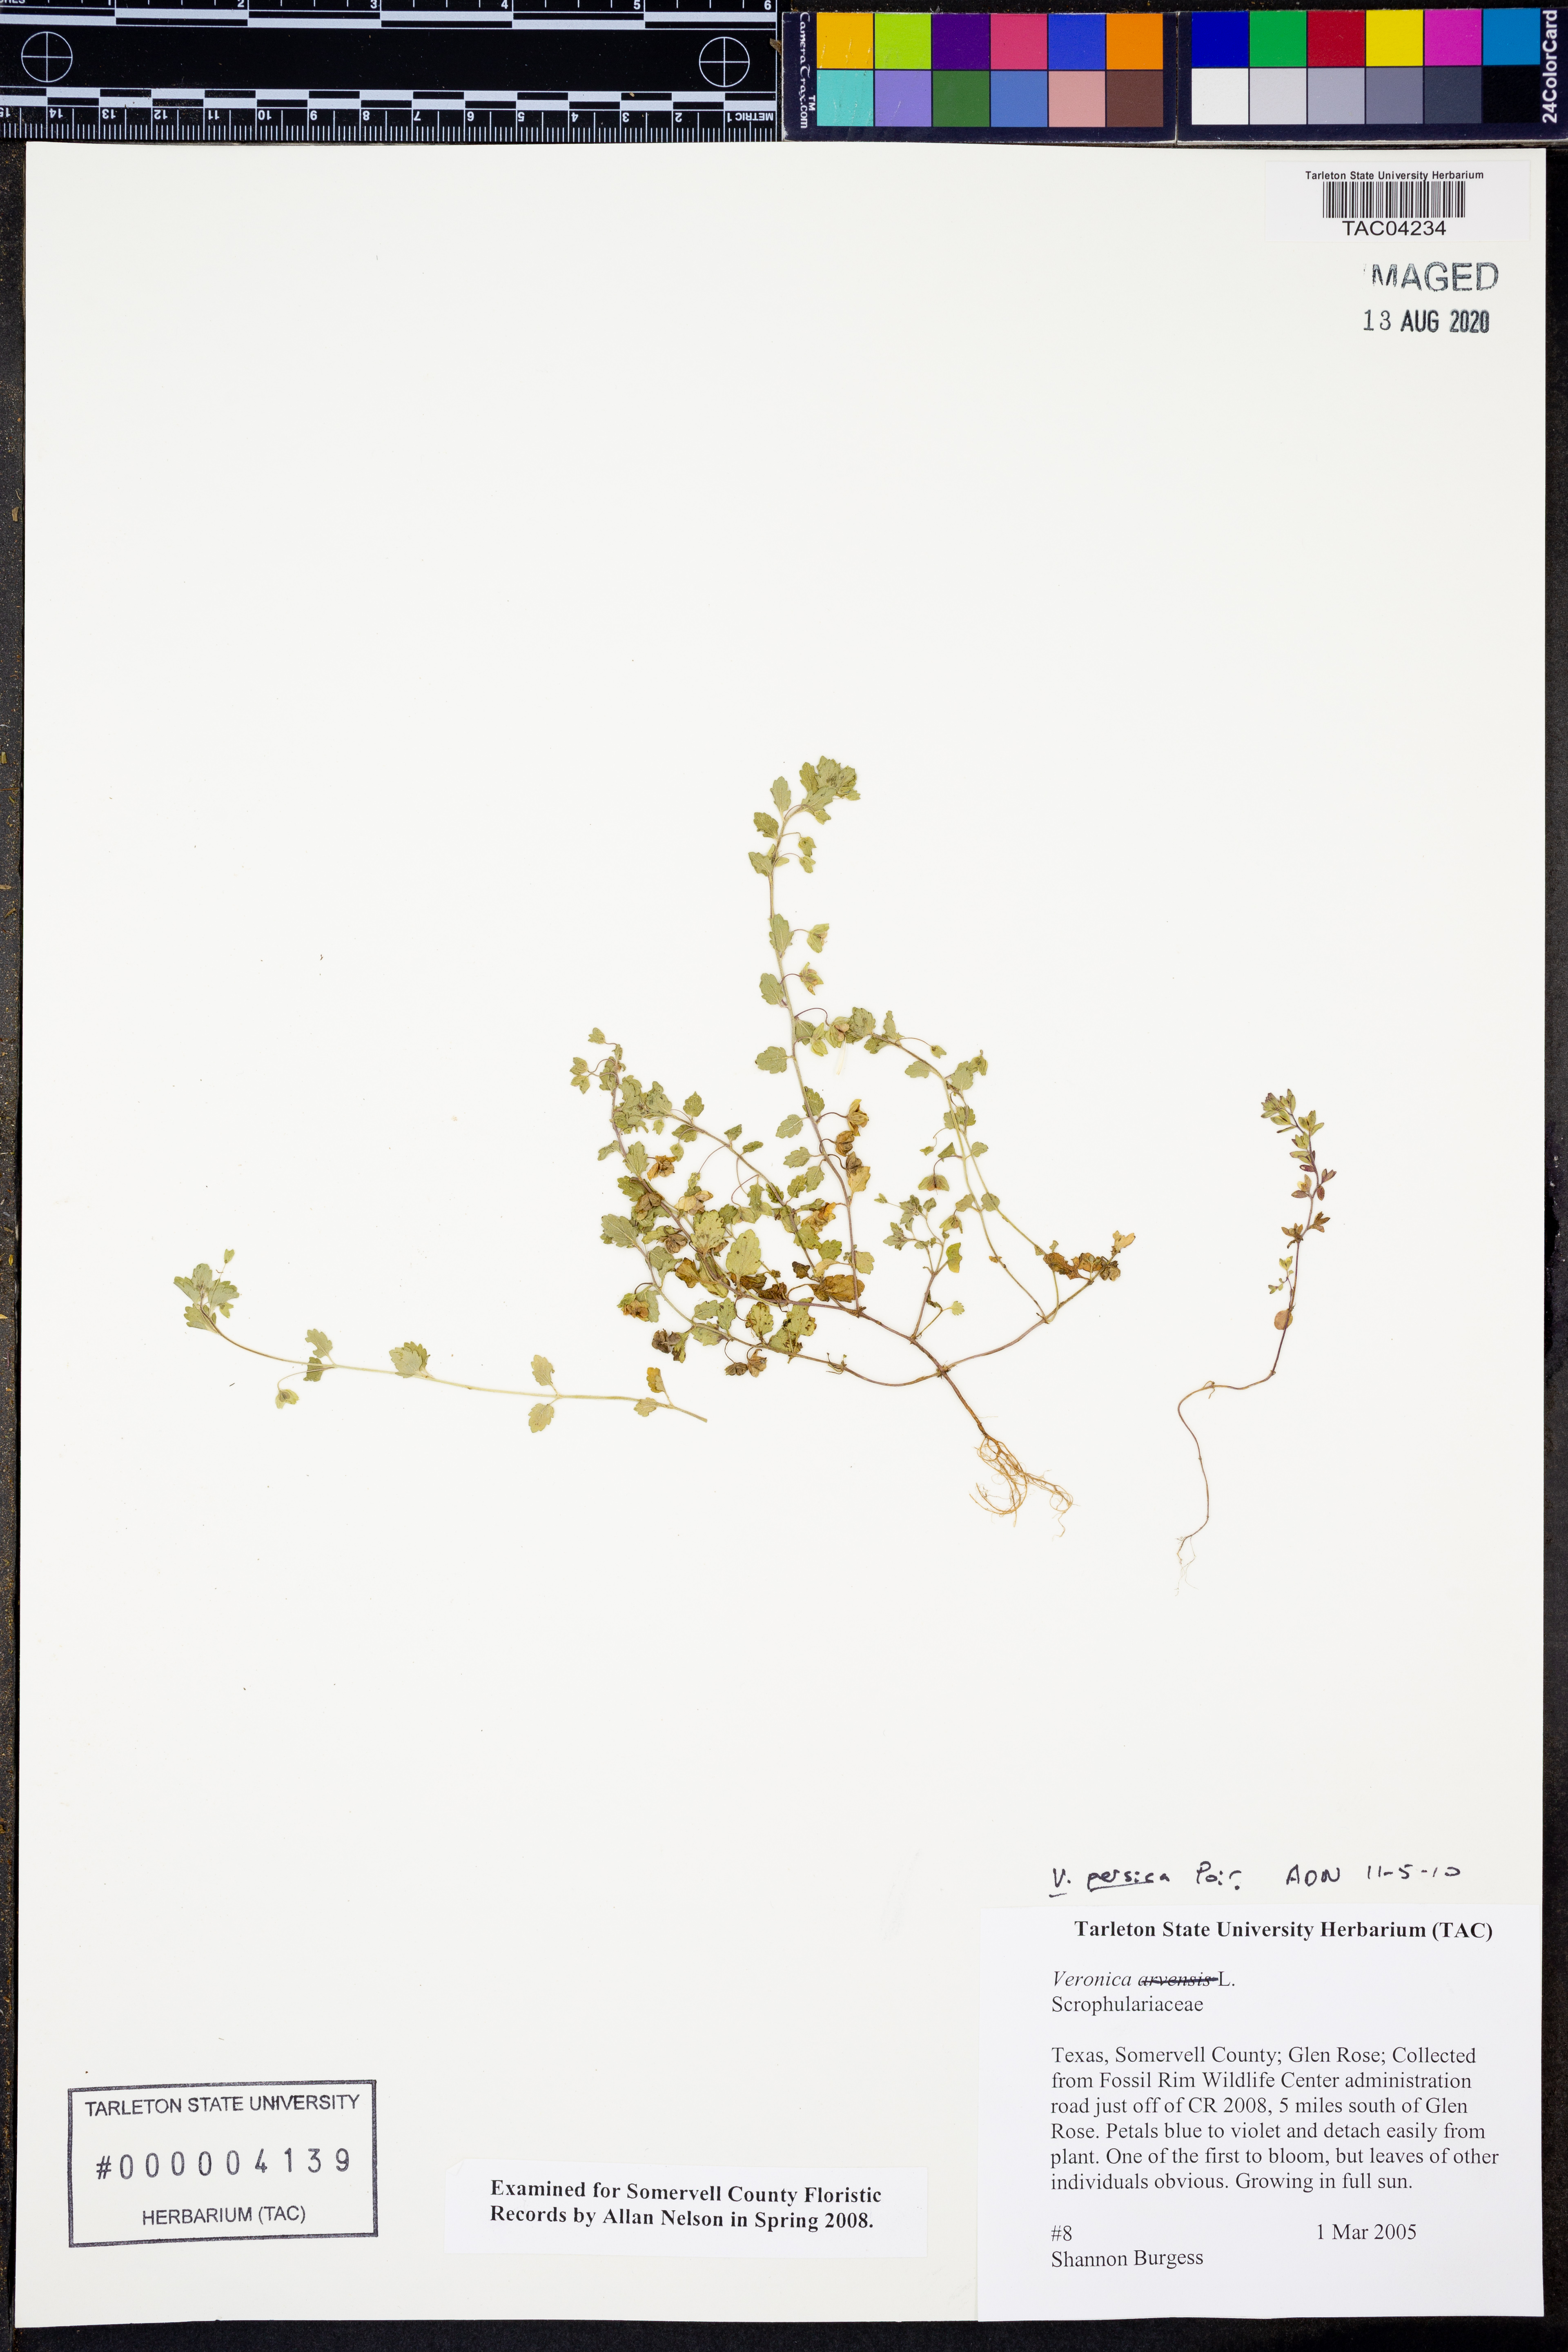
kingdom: Plantae
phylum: Tracheophyta
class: Magnoliopsida
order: Lamiales
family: Plantaginaceae
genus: Veronica
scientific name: Veronica persica
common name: Common field-speedwell
